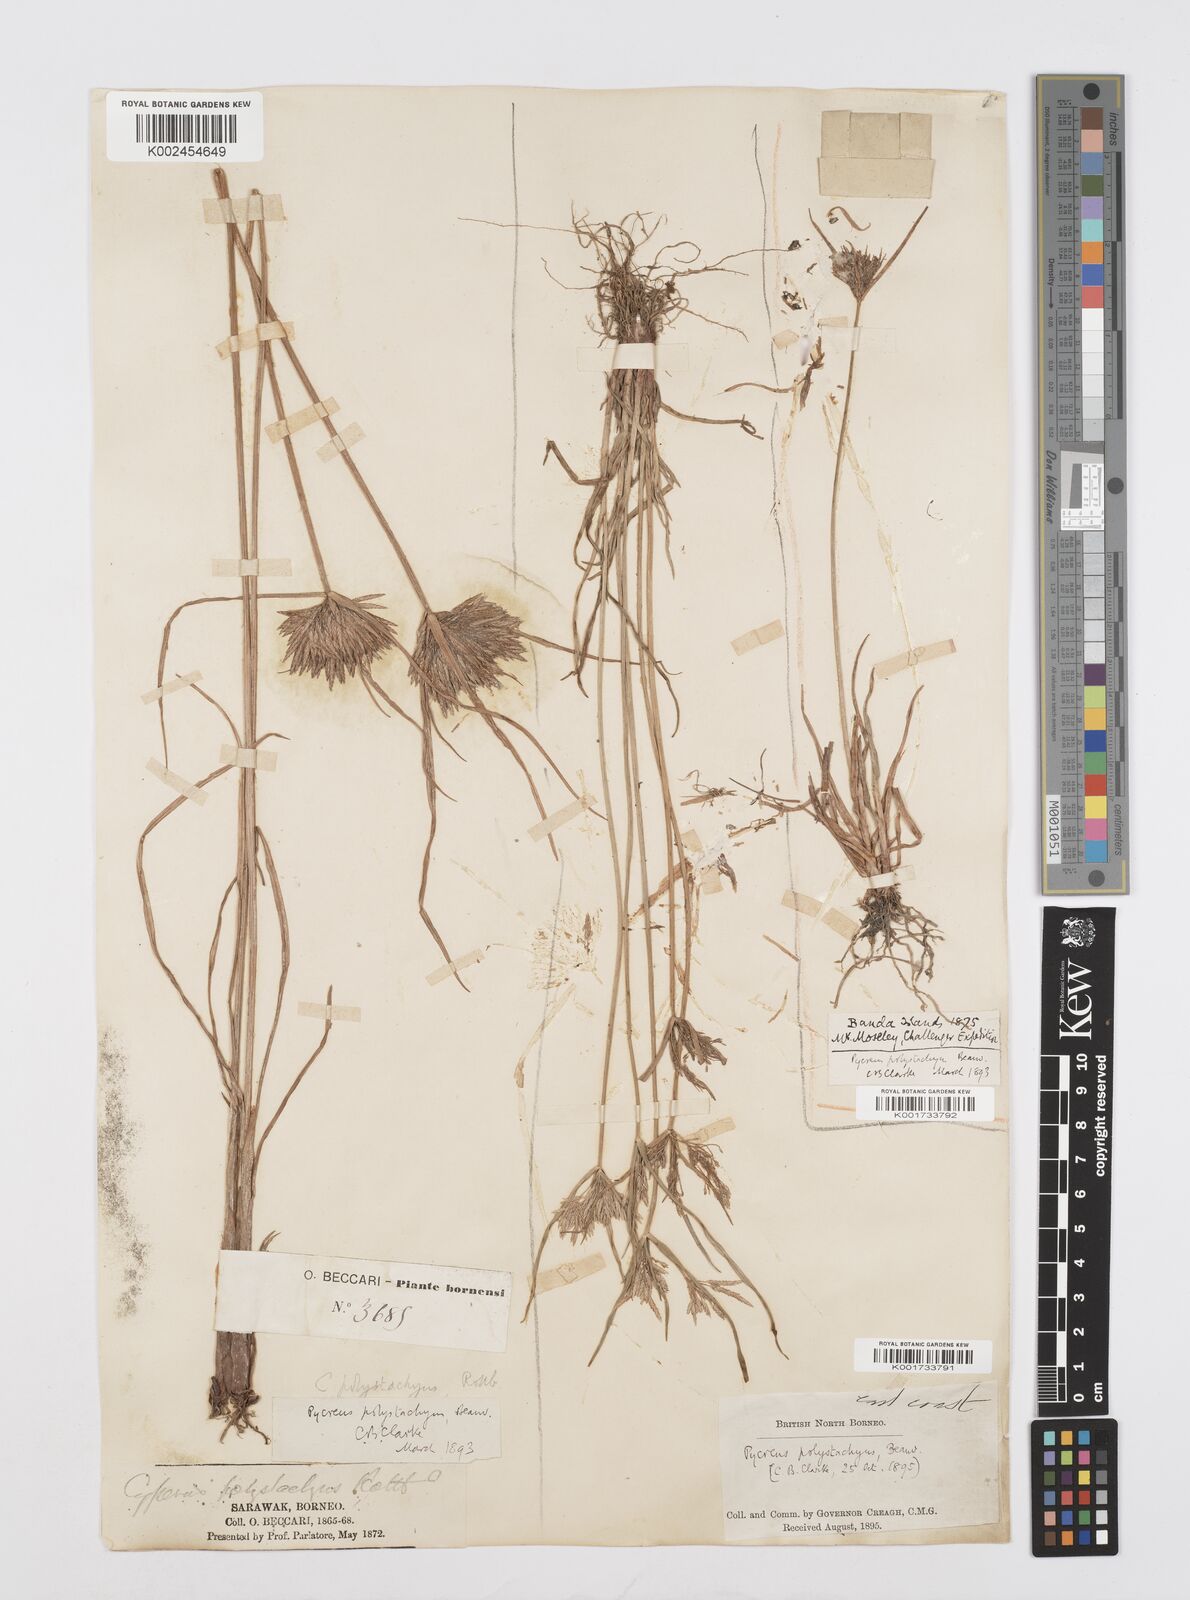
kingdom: Plantae
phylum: Tracheophyta
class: Liliopsida
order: Poales
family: Cyperaceae
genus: Cyperus
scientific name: Cyperus polystachyos
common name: Bunchy flat sedge
